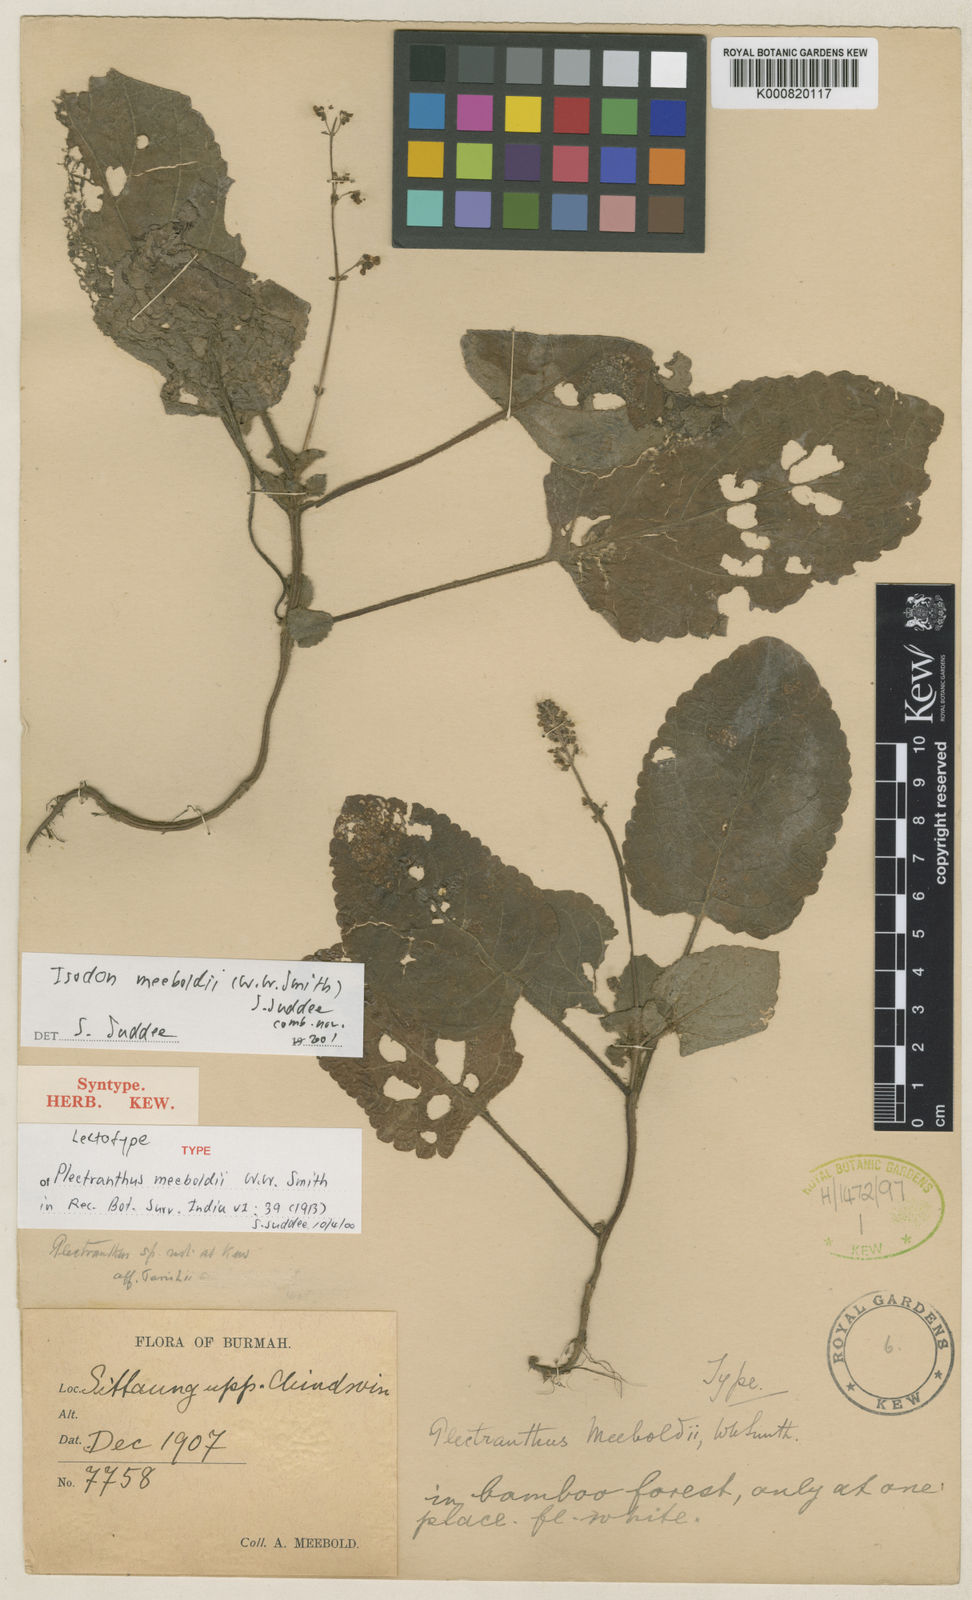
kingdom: Plantae
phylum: Tracheophyta
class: Magnoliopsida
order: Lamiales
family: Lamiaceae
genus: Isodon
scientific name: Isodon meeboldii
